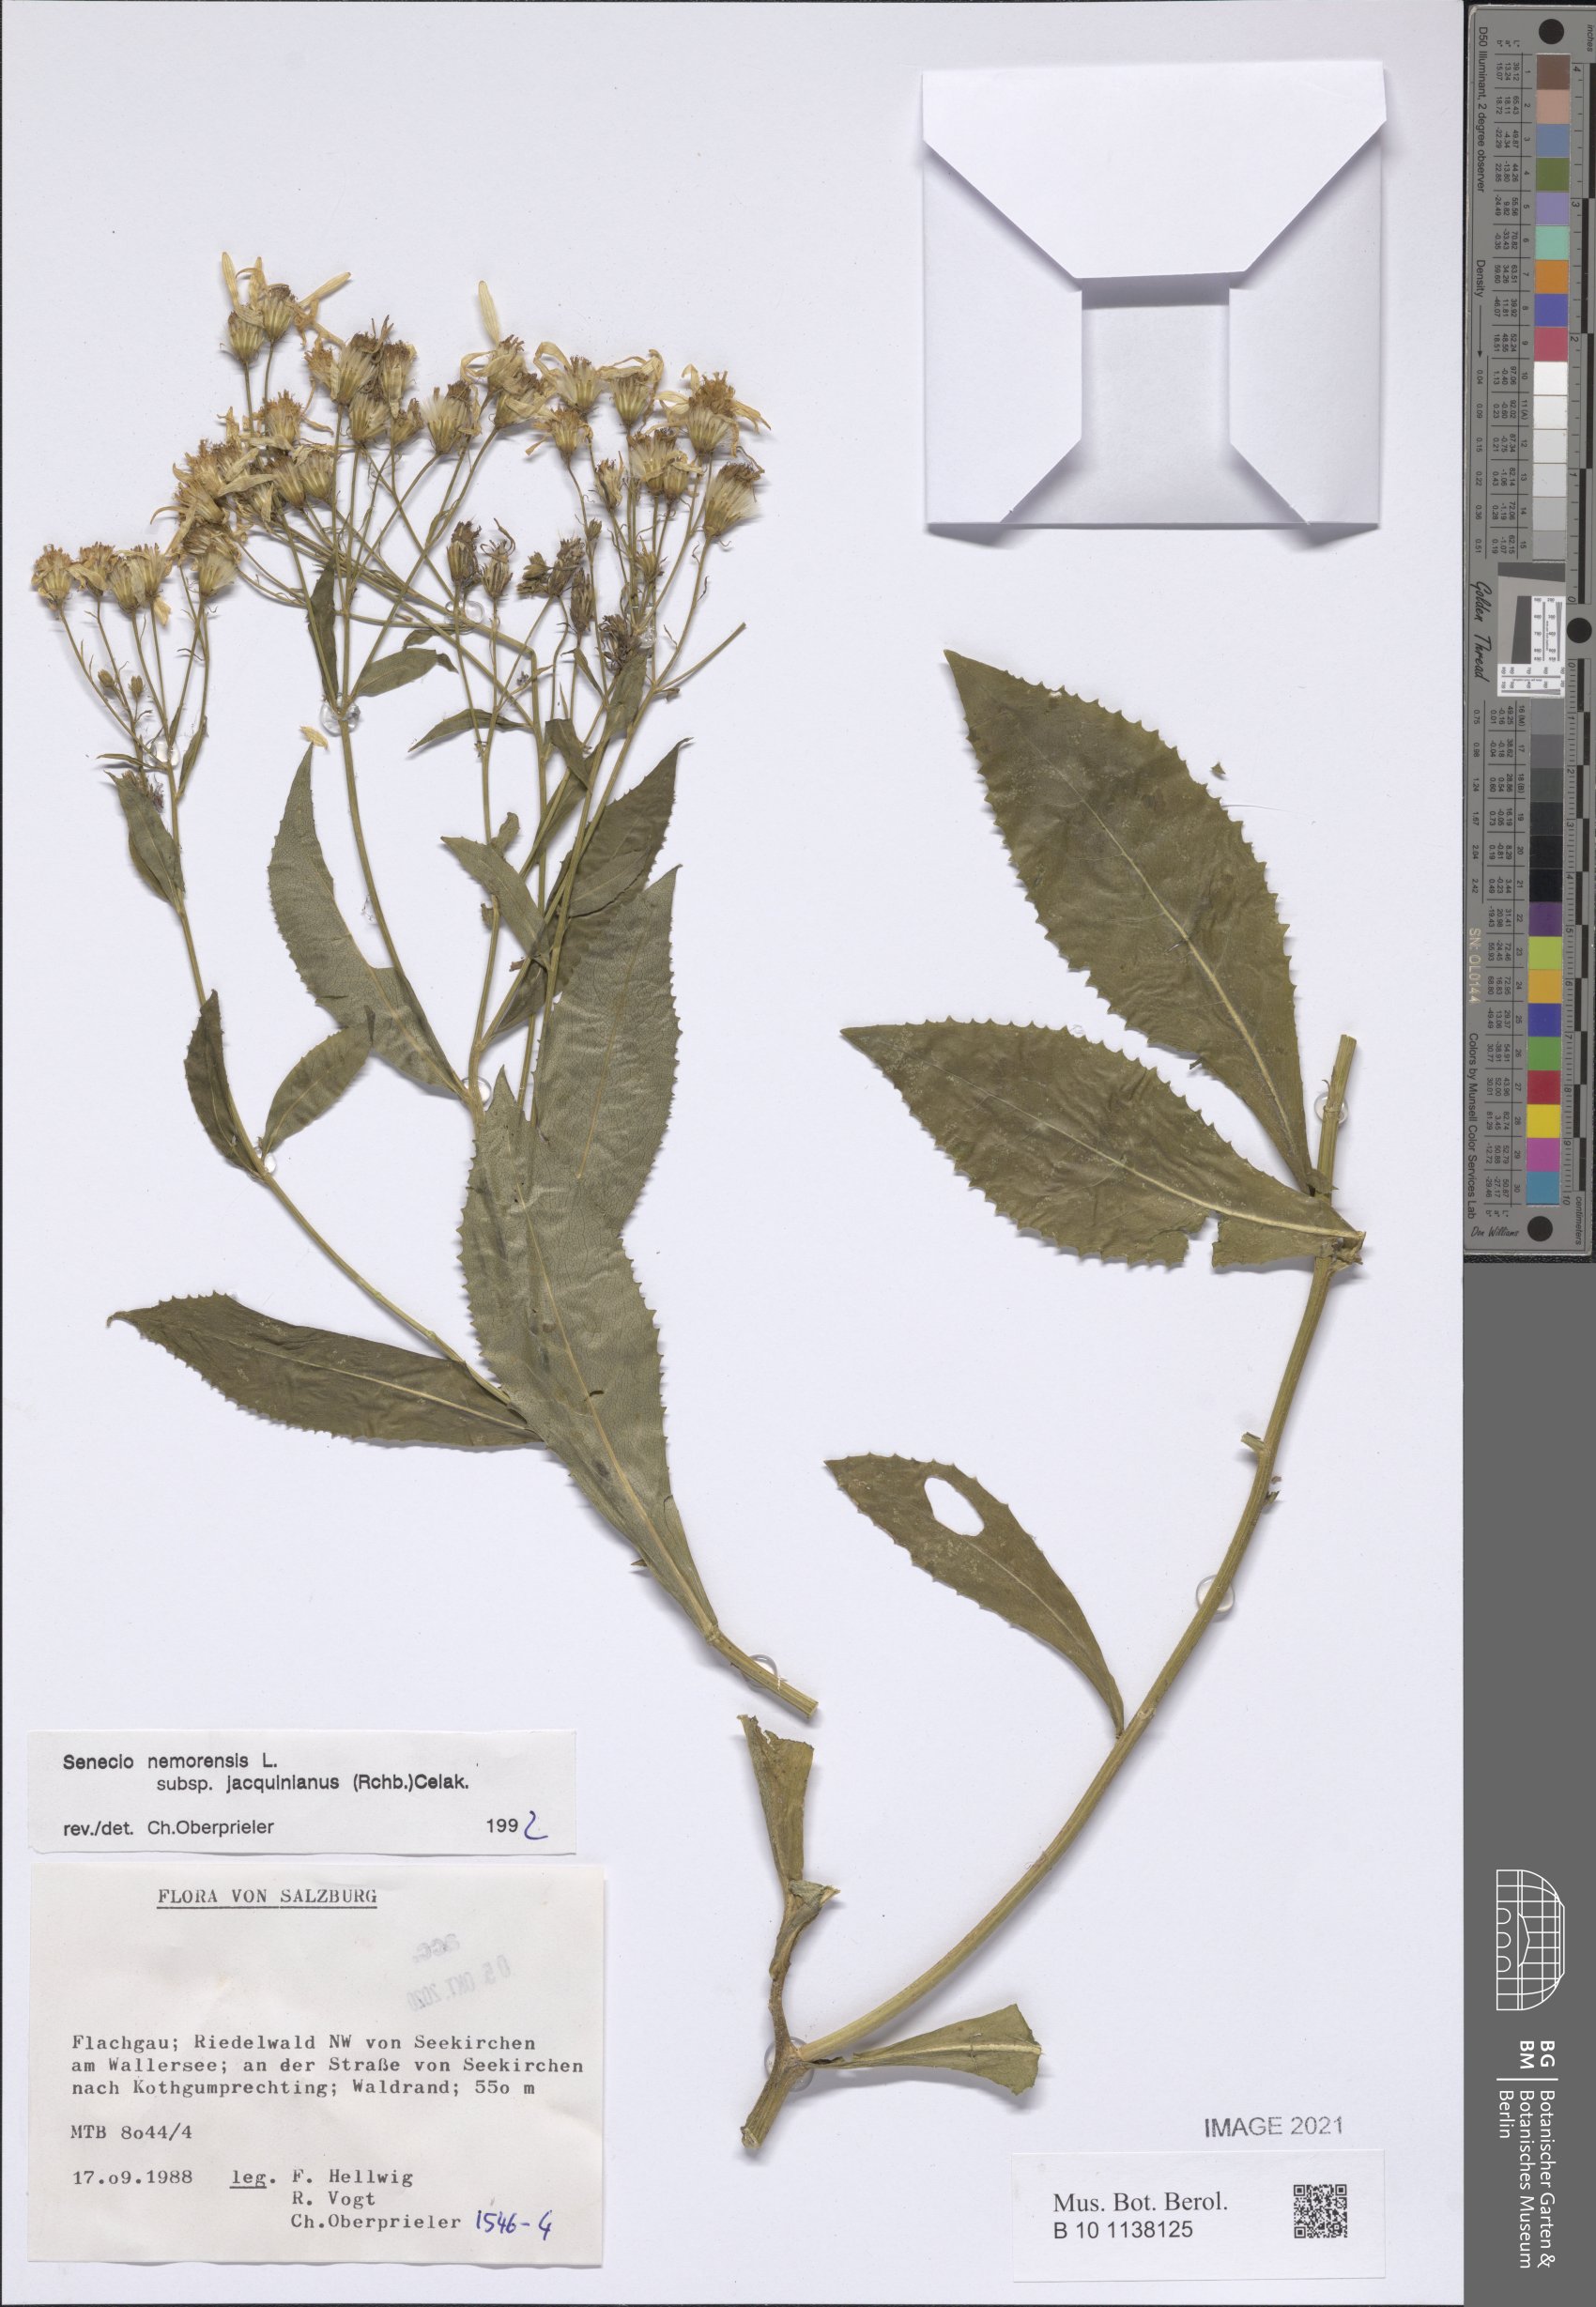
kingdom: Plantae
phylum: Tracheophyta
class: Magnoliopsida
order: Asterales
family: Asteraceae
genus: Senecio
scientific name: Senecio germanicus
